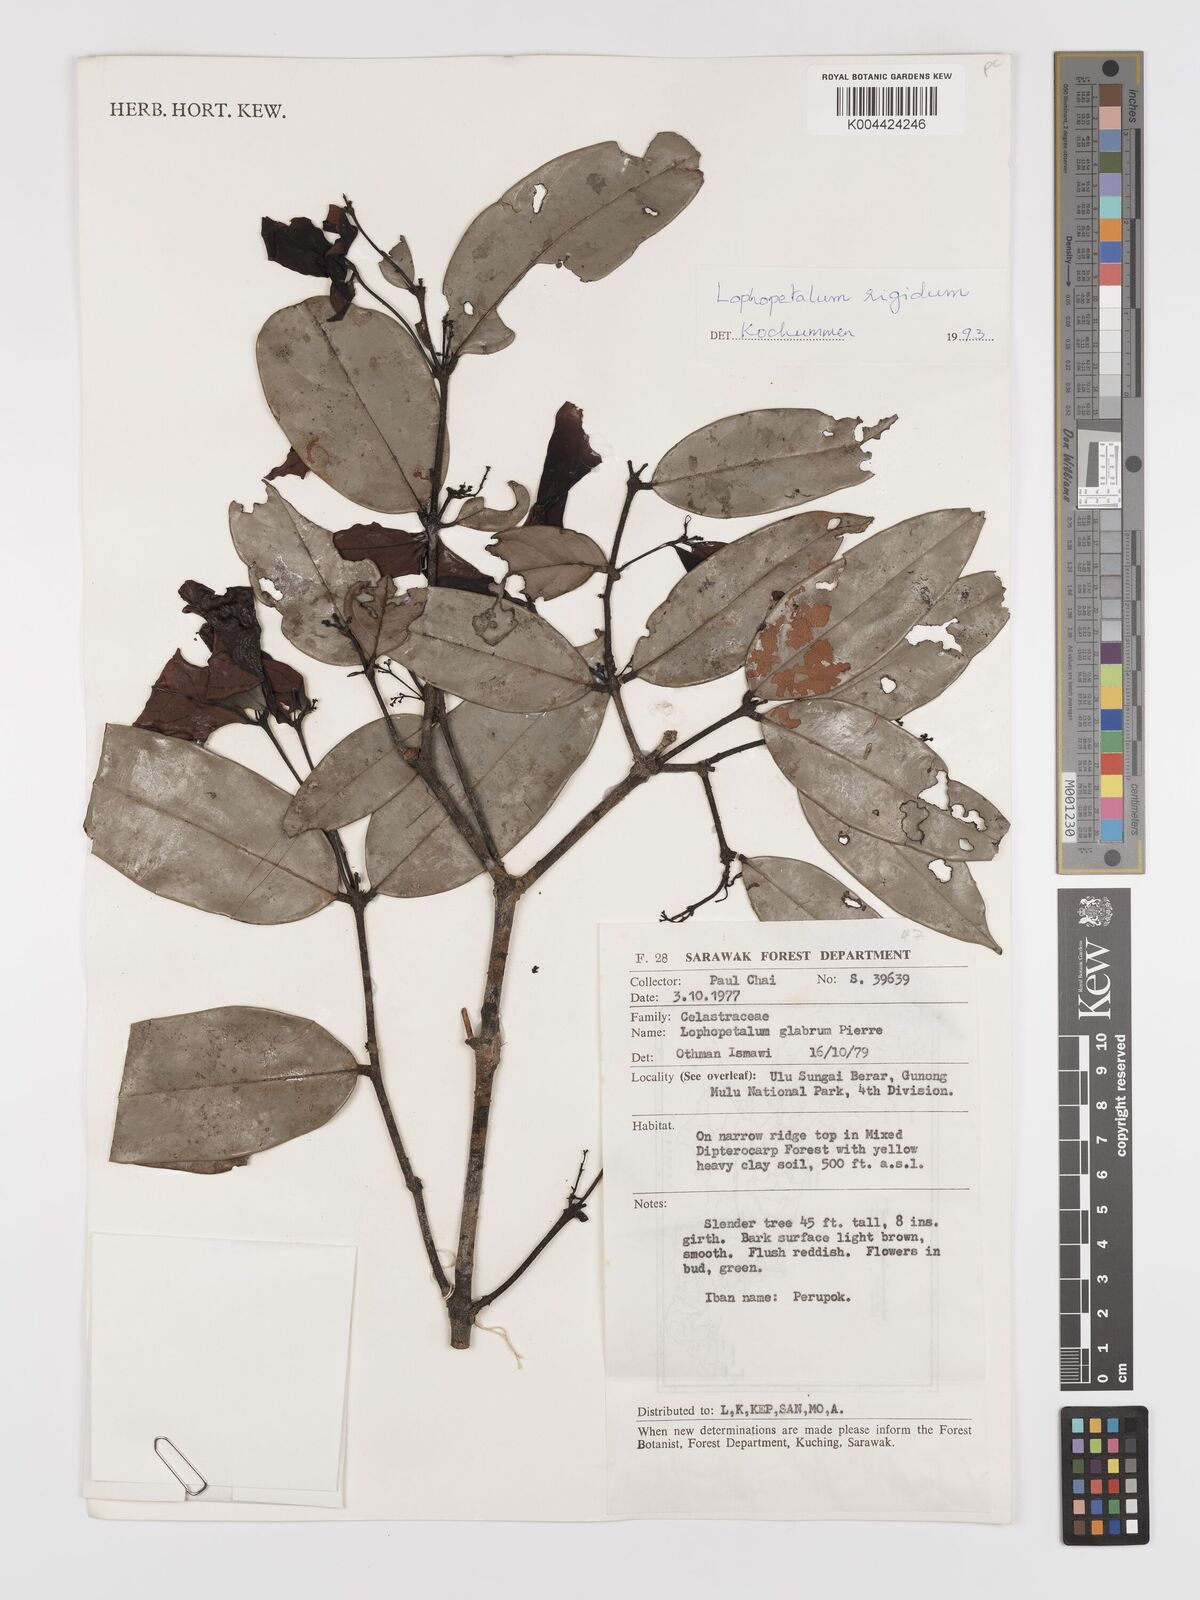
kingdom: Plantae
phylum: Tracheophyta
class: Magnoliopsida
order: Celastrales
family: Celastraceae
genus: Lophopetalum
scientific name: Lophopetalum rigidum
